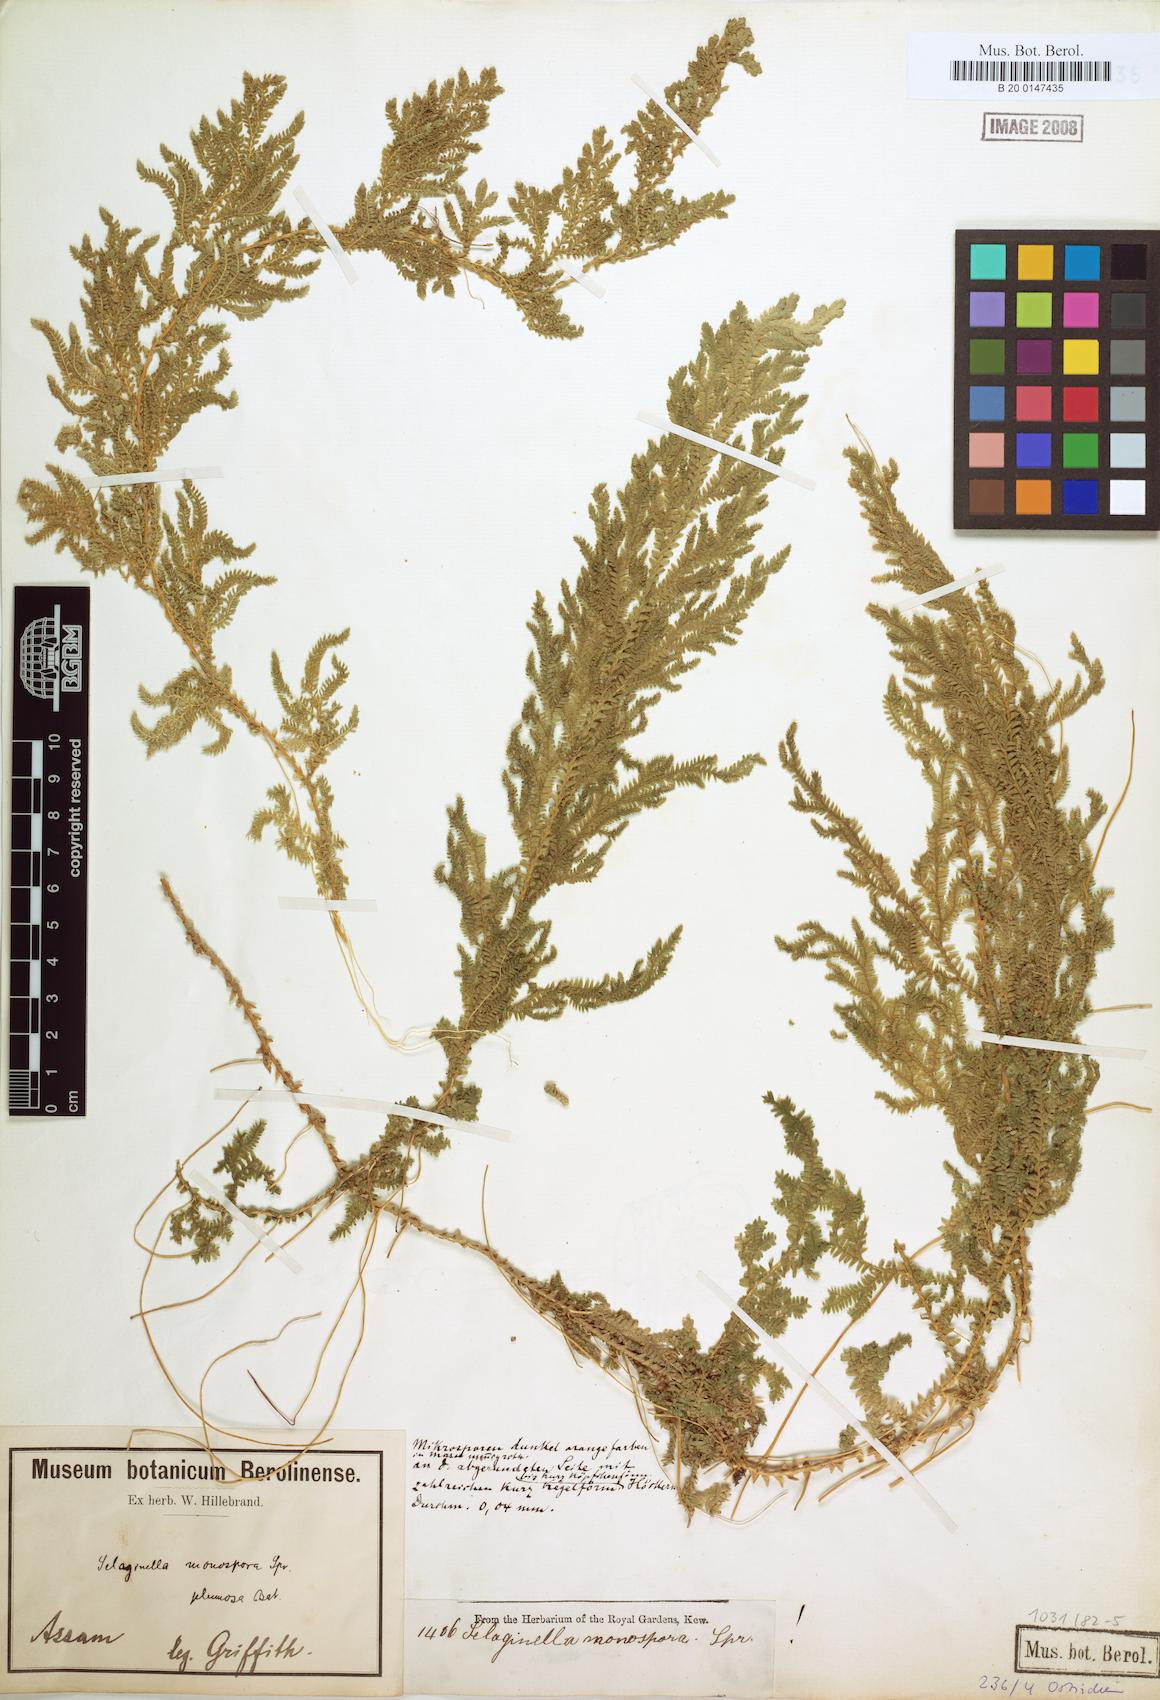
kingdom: Plantae
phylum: Tracheophyta
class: Lycopodiopsida
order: Selaginellales
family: Selaginellaceae
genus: Selaginella
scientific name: Selaginella monospora
